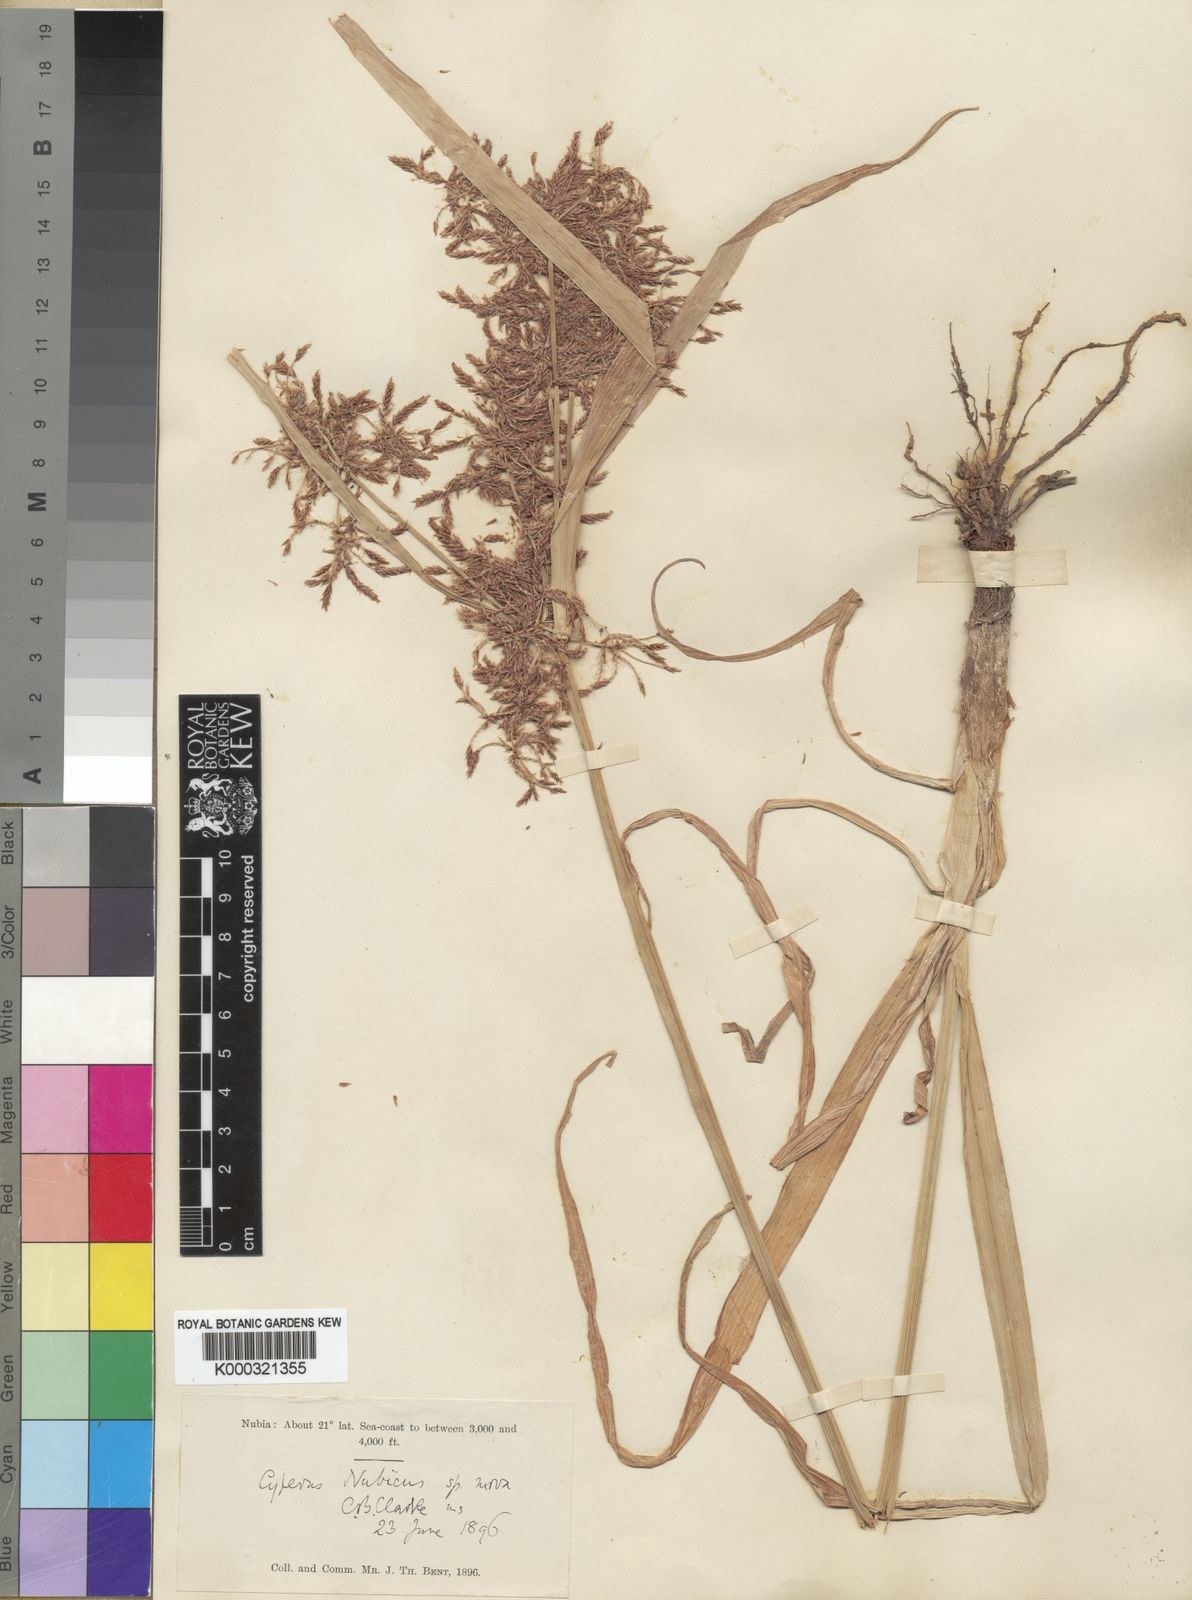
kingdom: Plantae
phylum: Tracheophyta
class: Liliopsida
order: Poales
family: Cyperaceae
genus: Cyperus
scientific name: Cyperus bifax
